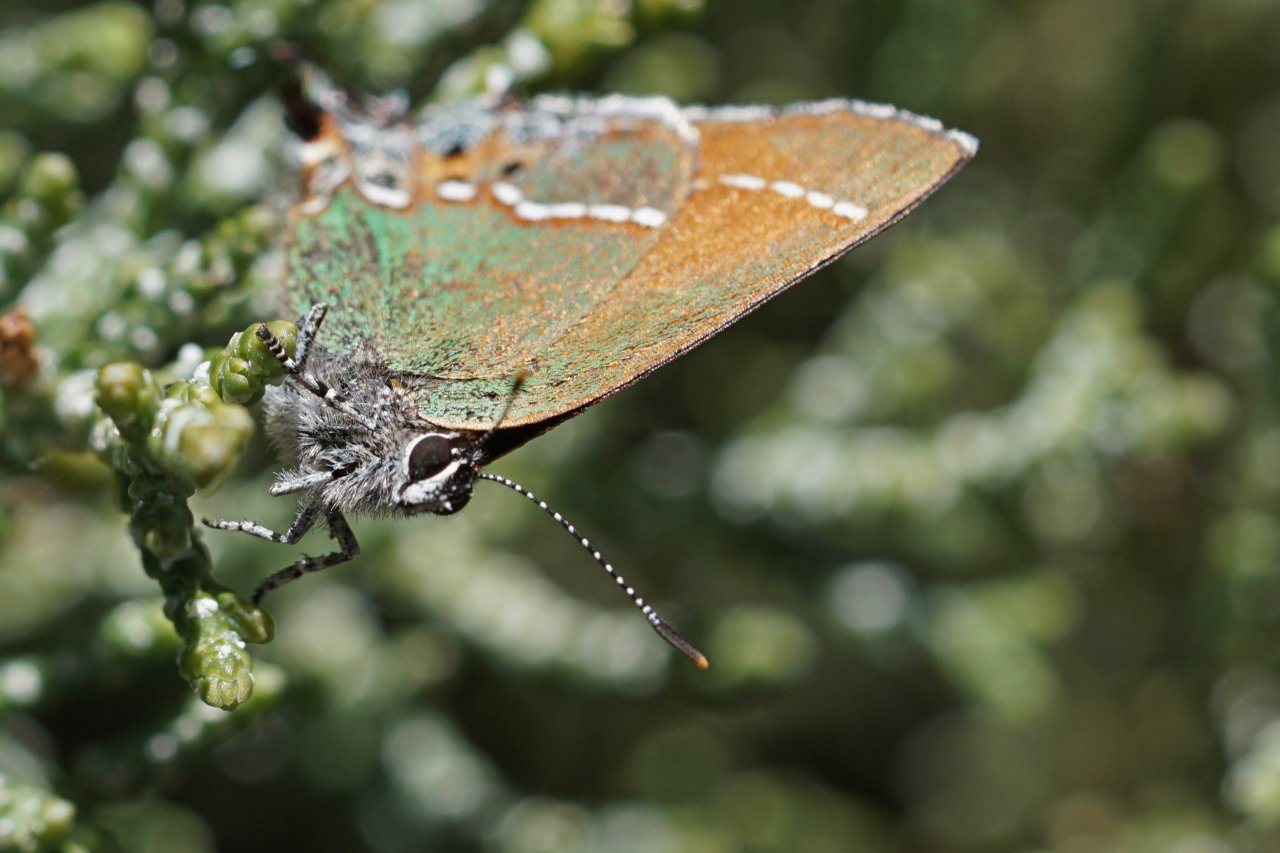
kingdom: Animalia
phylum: Arthropoda
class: Insecta
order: Lepidoptera
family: Lycaenidae
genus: Mitoura
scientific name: Mitoura gryneus
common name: Juniper Hairstreak
